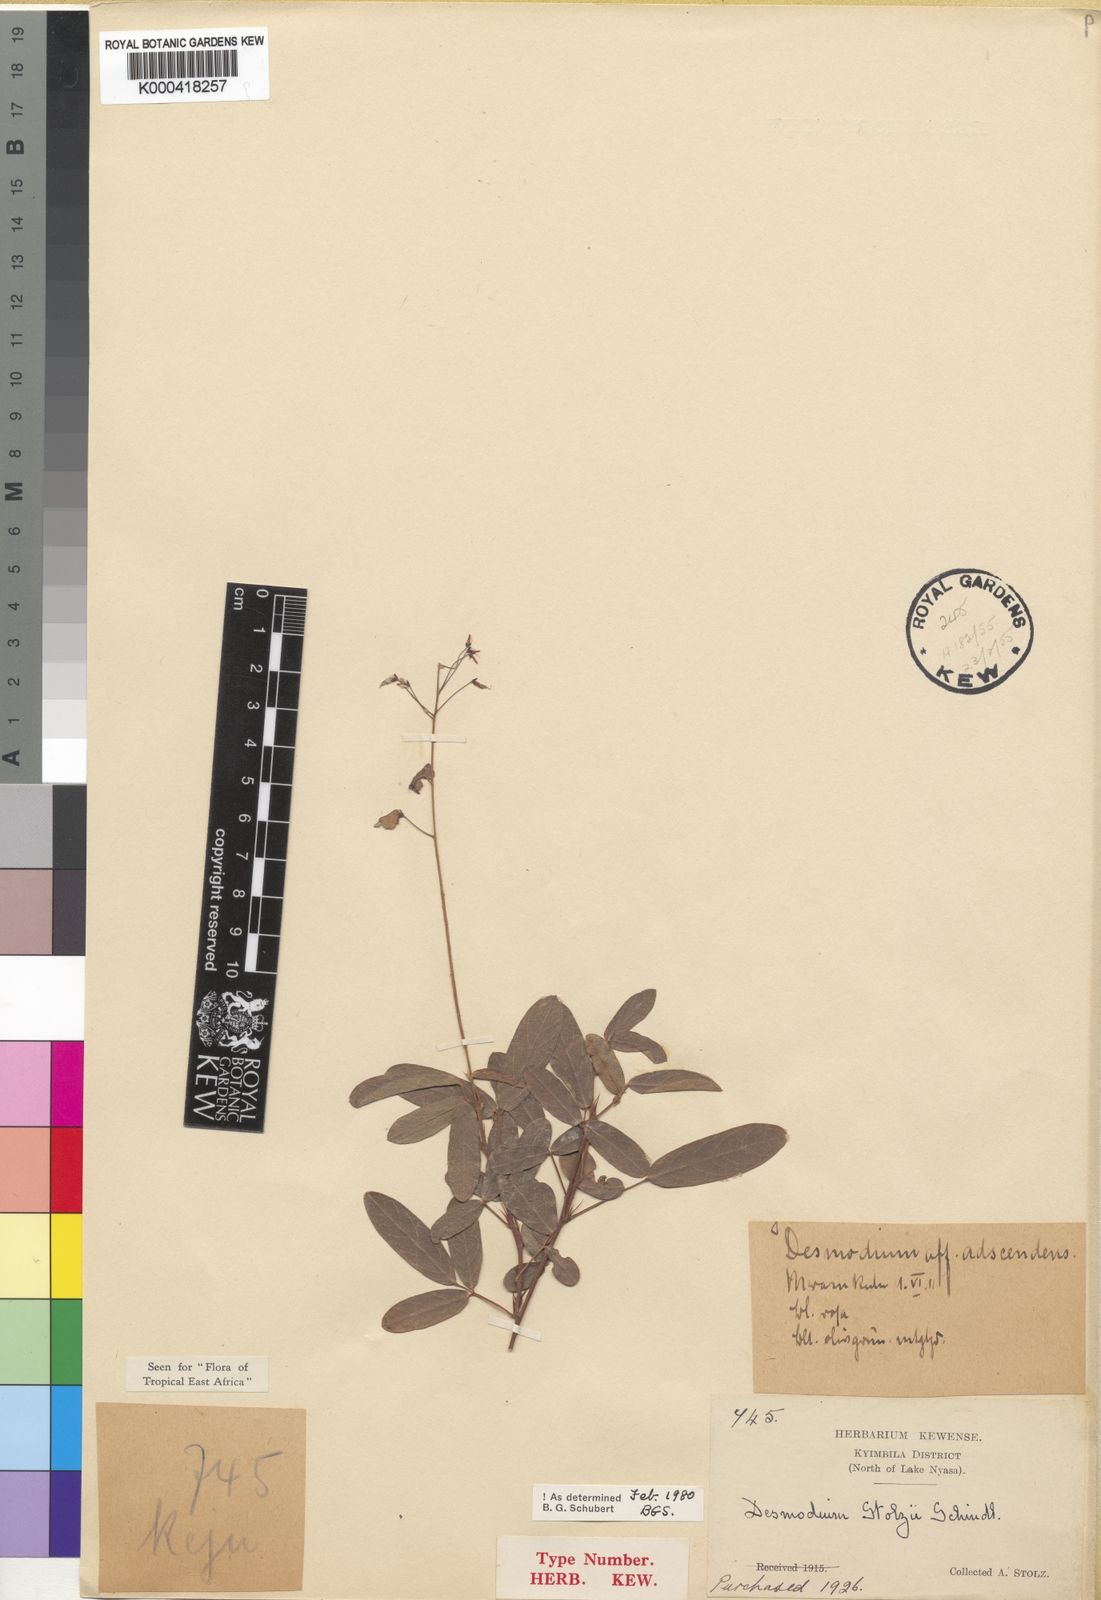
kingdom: Plantae
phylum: Tracheophyta
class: Magnoliopsida
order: Fabales
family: Fabaceae
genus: Grona
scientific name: Grona stolzii
